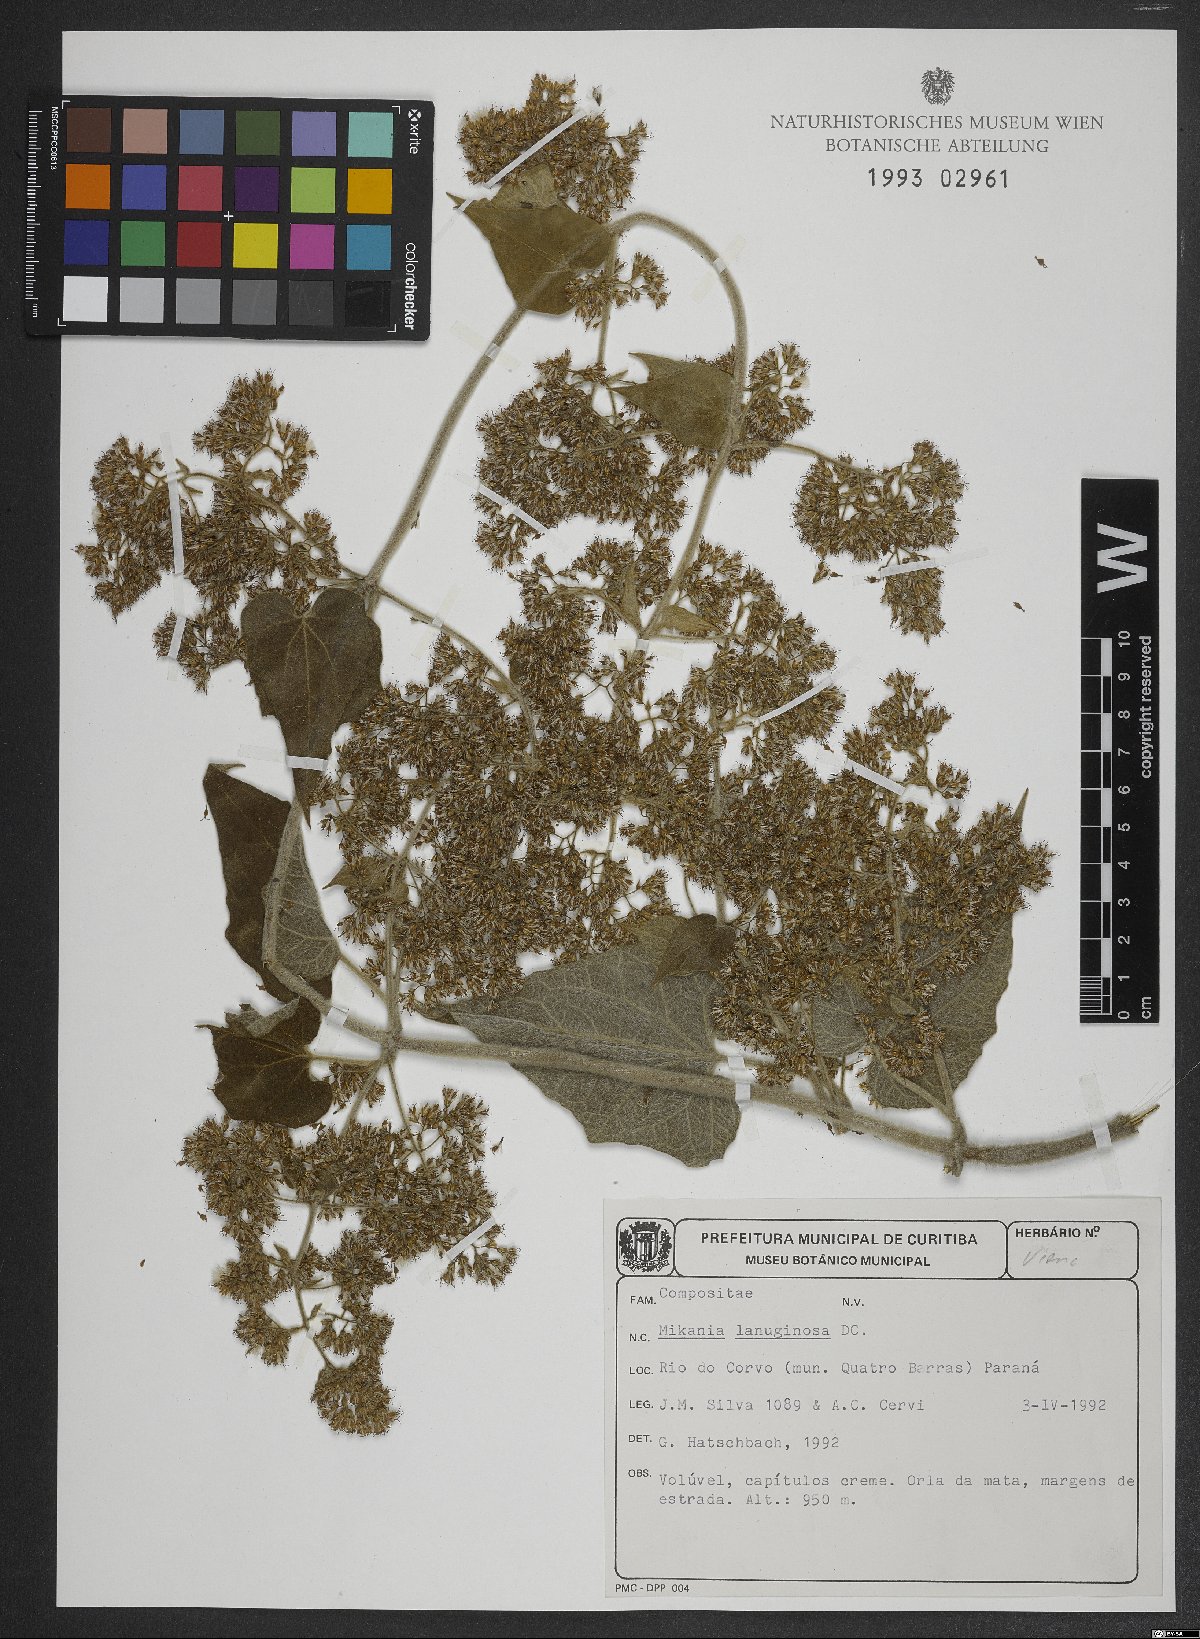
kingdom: Plantae
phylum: Tracheophyta
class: Magnoliopsida
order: Asterales
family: Asteraceae
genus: Mikania
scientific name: Mikania banisteriae
